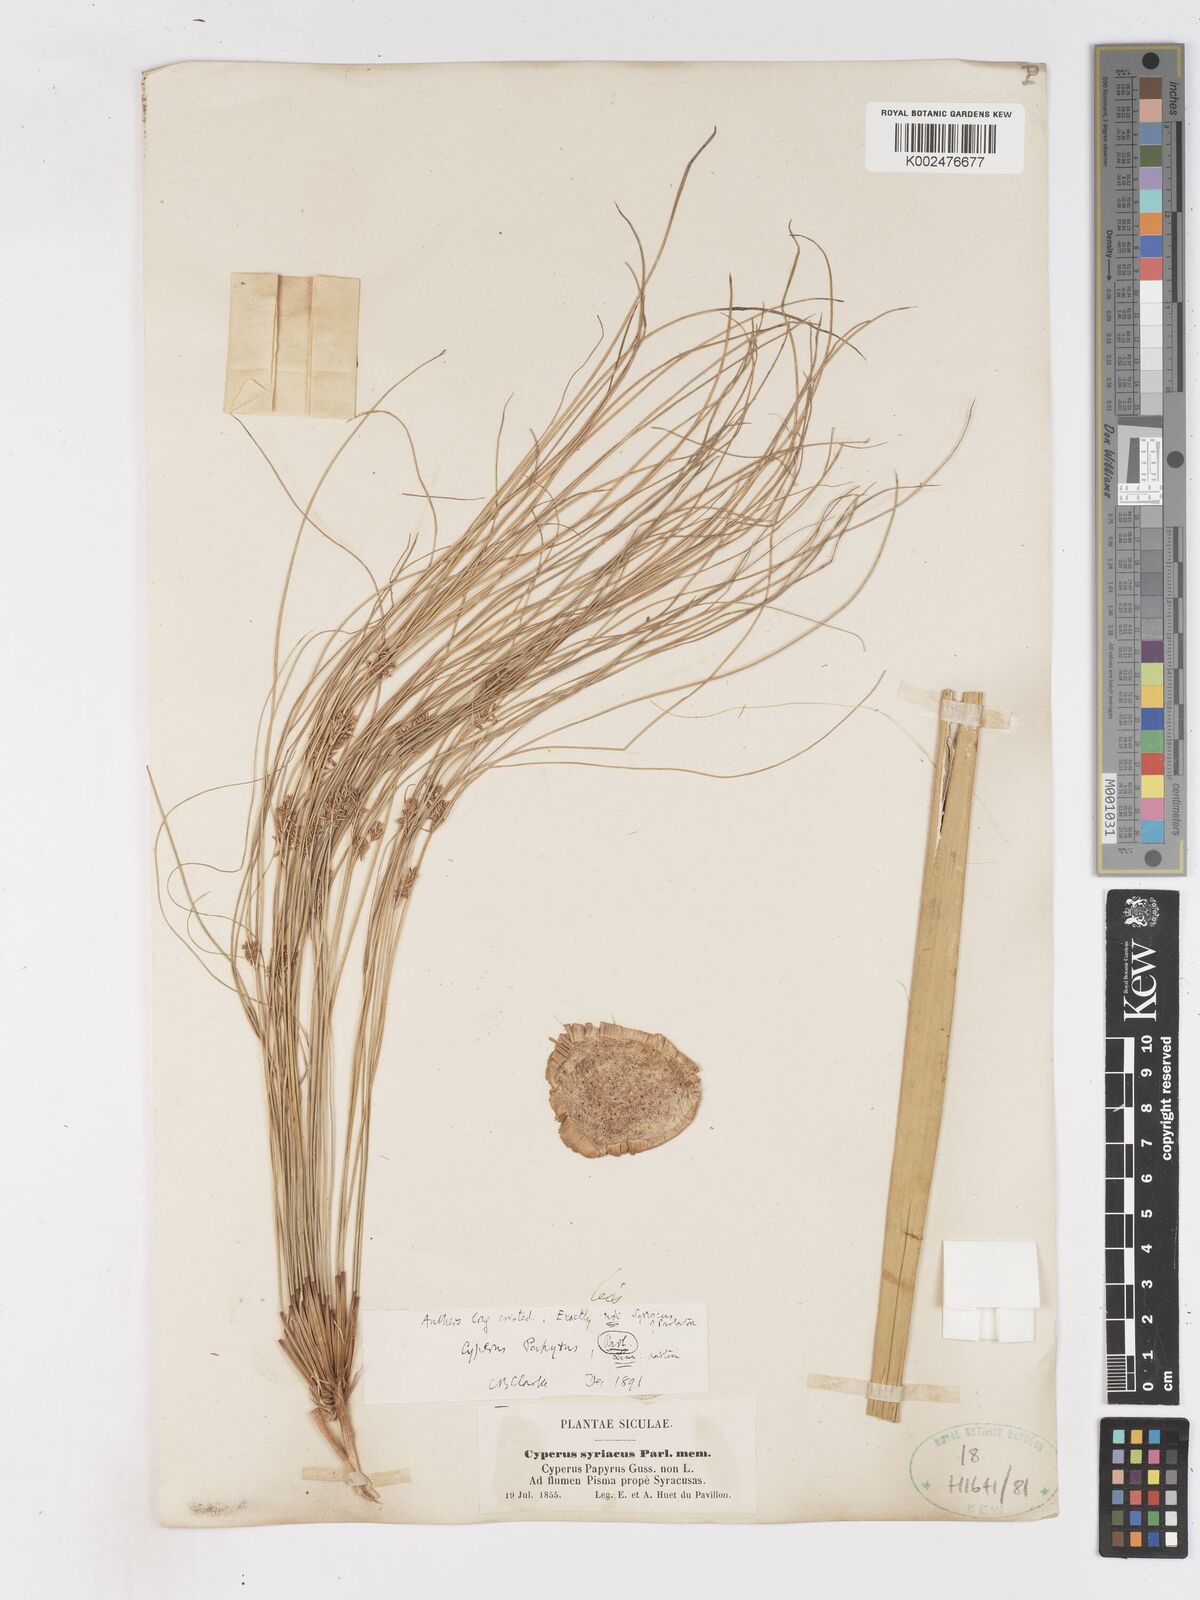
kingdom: Plantae
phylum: Tracheophyta
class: Liliopsida
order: Poales
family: Cyperaceae
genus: Cyperus
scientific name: Cyperus papyrus
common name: Papyrus
